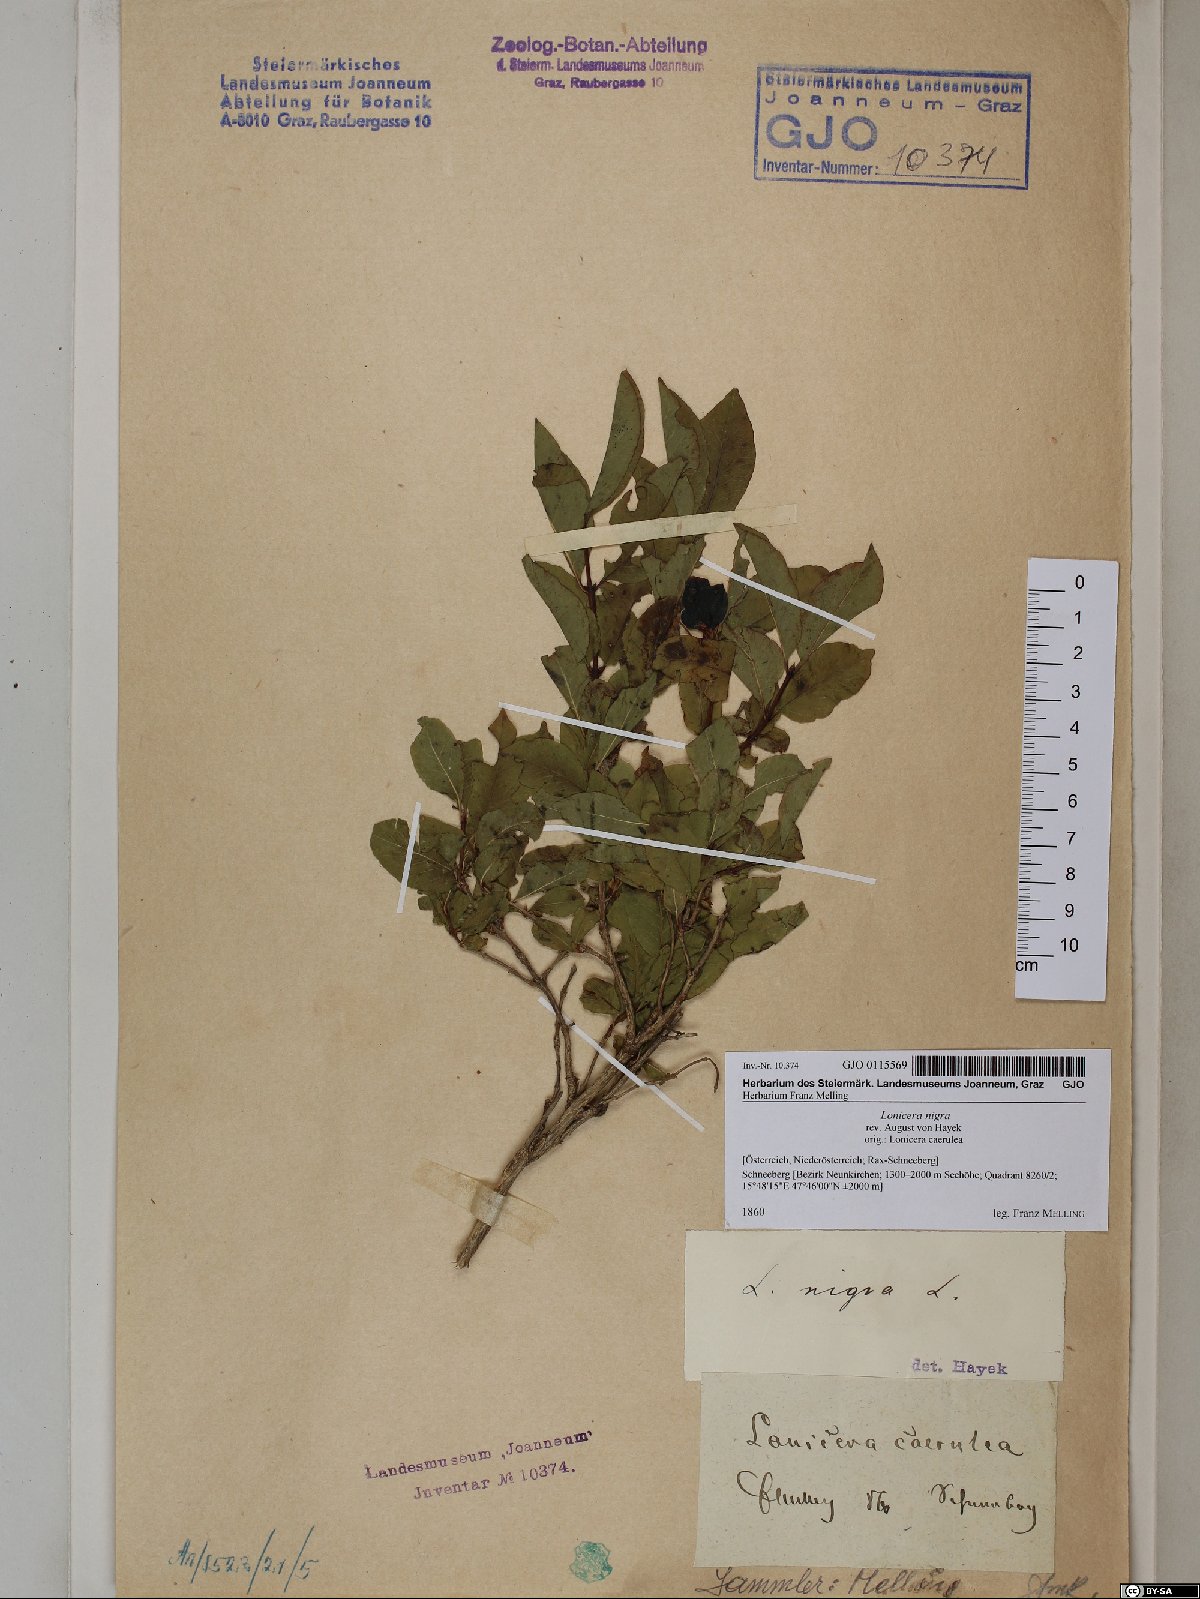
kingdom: Plantae
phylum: Tracheophyta
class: Magnoliopsida
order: Dipsacales
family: Caprifoliaceae
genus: Lonicera
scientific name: Lonicera nigra
